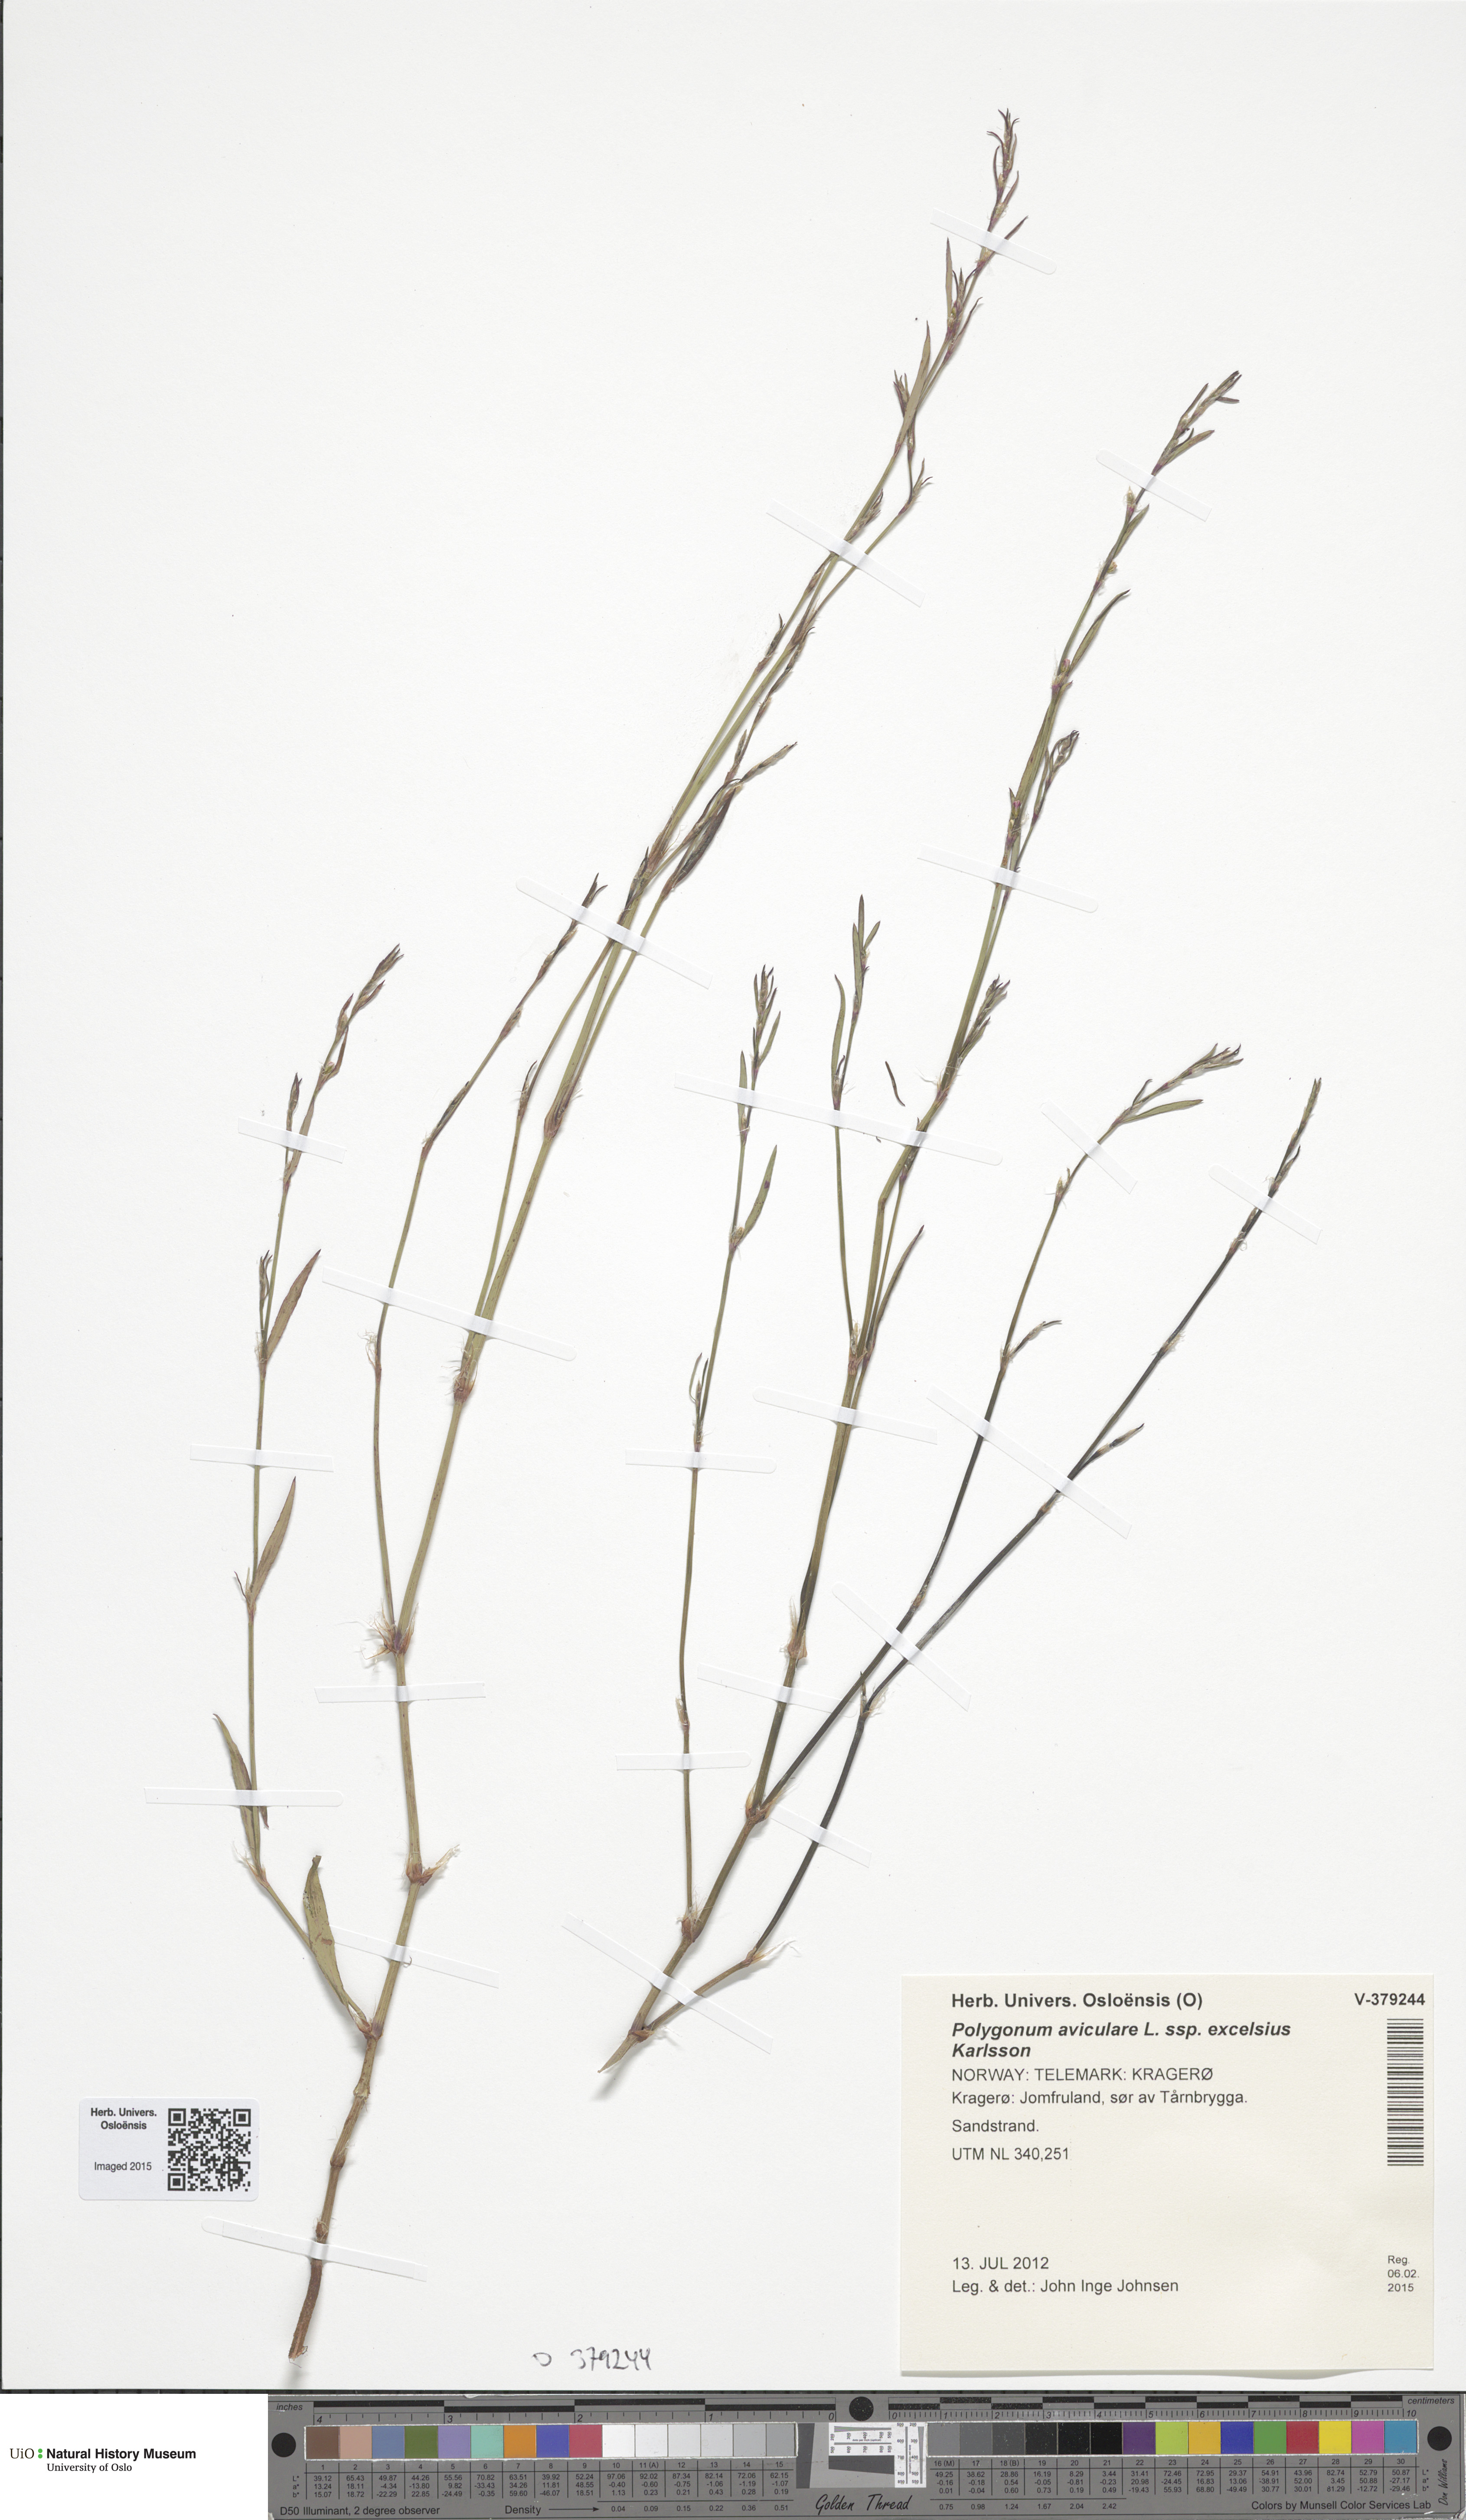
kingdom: Plantae
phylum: Tracheophyta
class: Magnoliopsida
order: Caryophyllales
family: Polygonaceae
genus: Polygonum
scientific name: Polygonum excelsius
